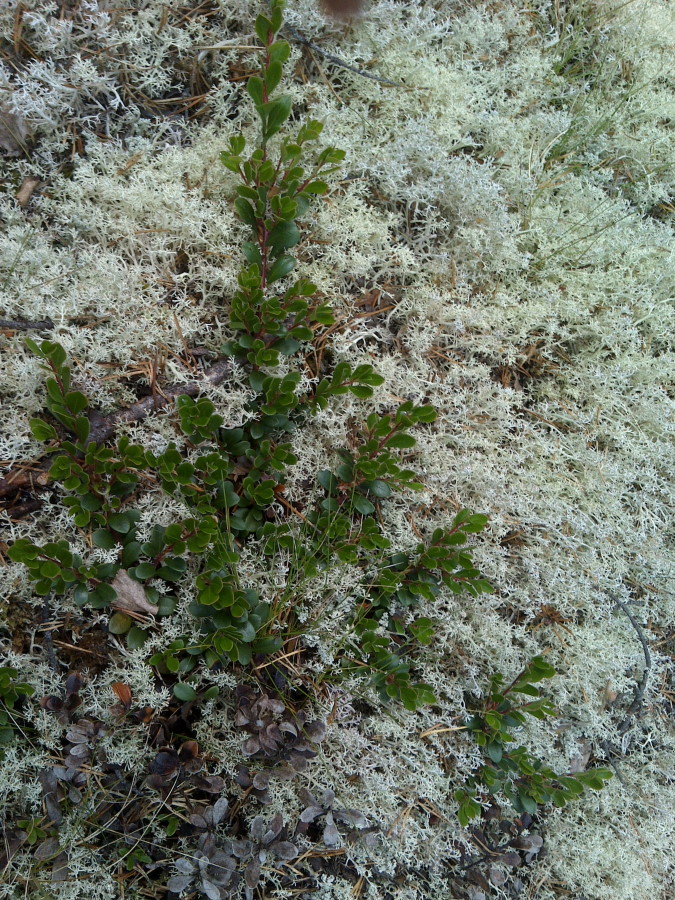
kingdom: Plantae
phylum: Tracheophyta
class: Magnoliopsida
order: Ericales
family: Ericaceae
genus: Arctostaphylos
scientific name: Arctostaphylos uva-ursi
